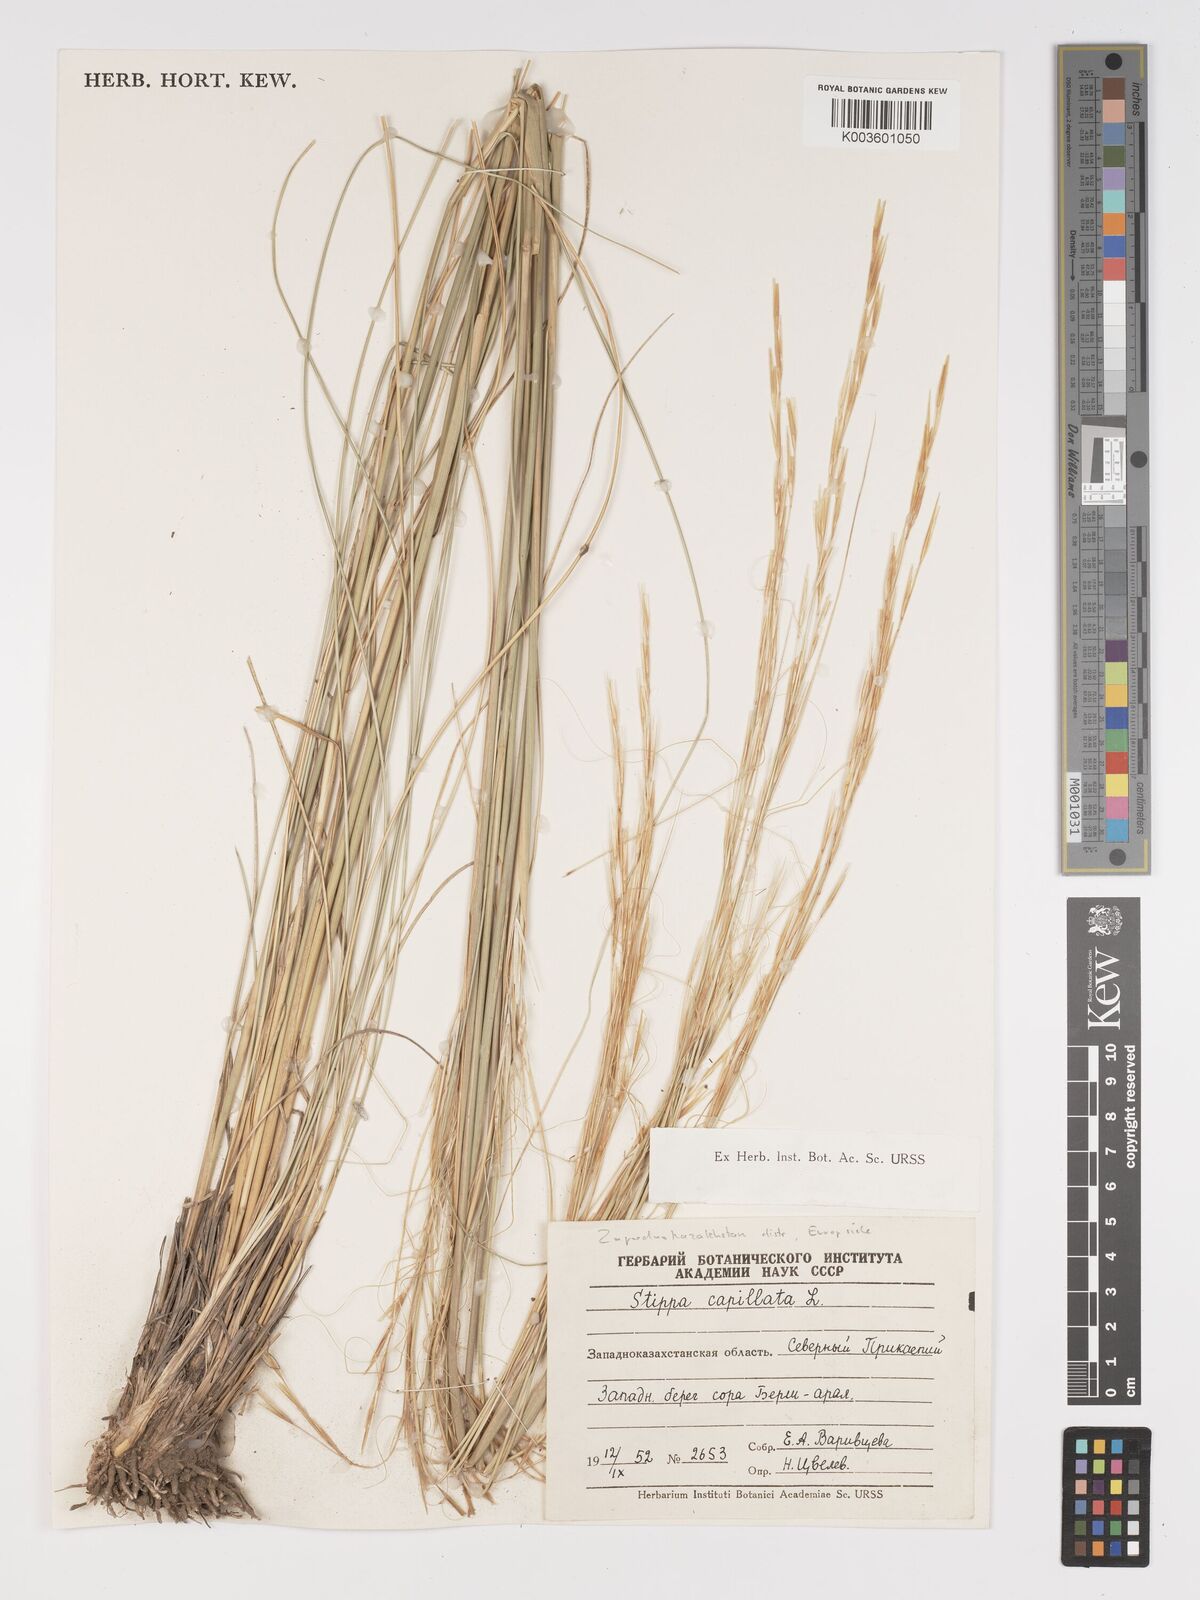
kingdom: Plantae
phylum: Tracheophyta
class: Liliopsida
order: Poales
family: Poaceae
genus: Stipa
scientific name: Stipa capillata
